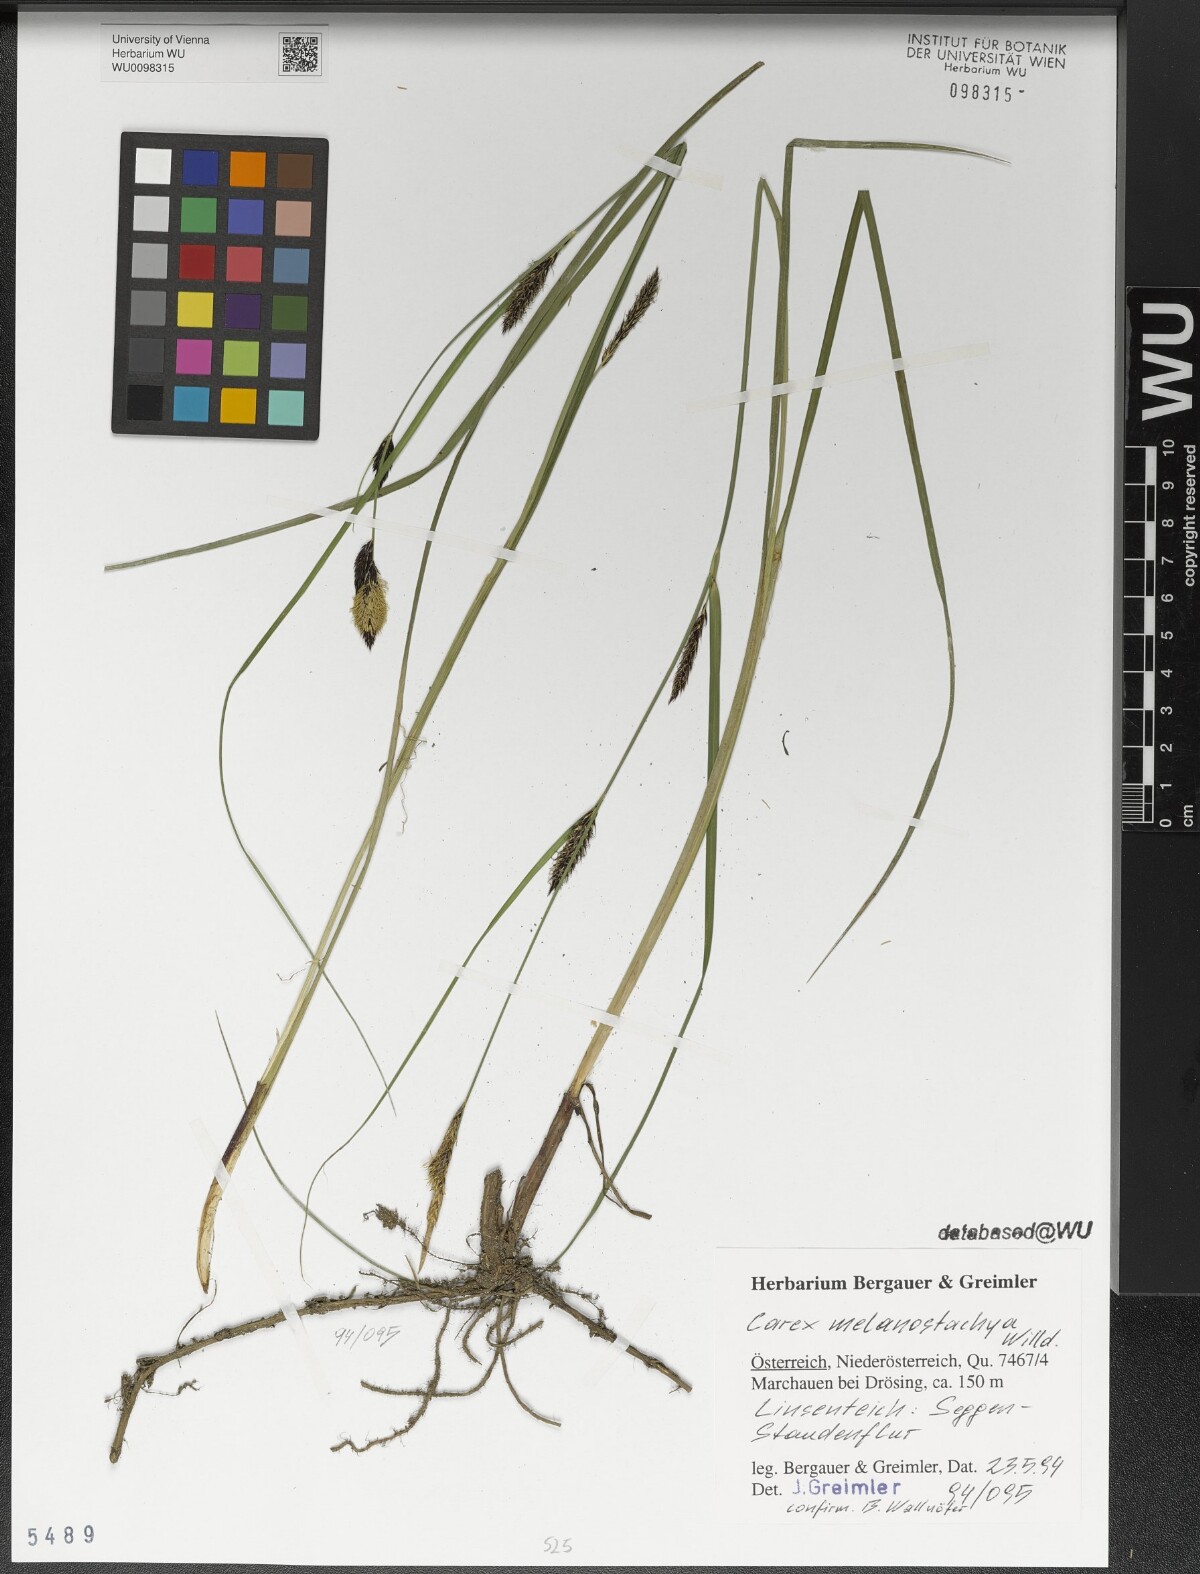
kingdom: Plantae
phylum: Tracheophyta
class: Liliopsida
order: Poales
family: Cyperaceae
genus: Carex
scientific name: Carex melanostachya
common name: Black-spiked sedge
